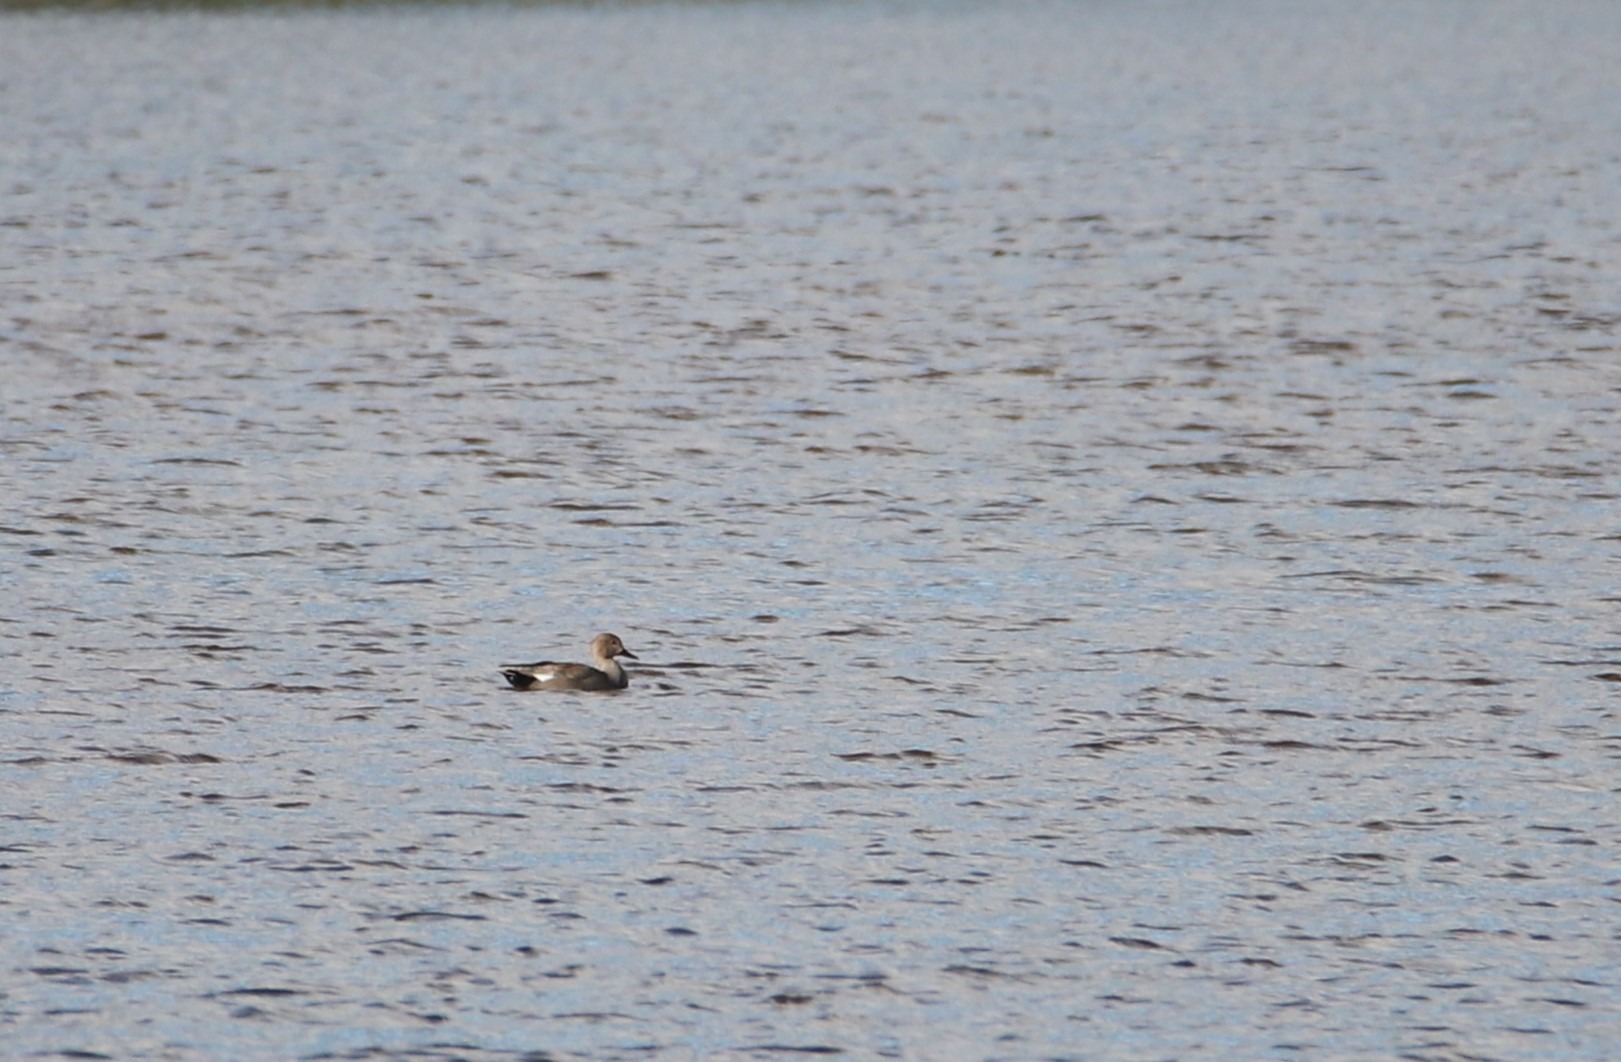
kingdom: Animalia
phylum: Chordata
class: Aves
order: Anseriformes
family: Anatidae
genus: Mareca
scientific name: Mareca strepera
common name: Knarand
